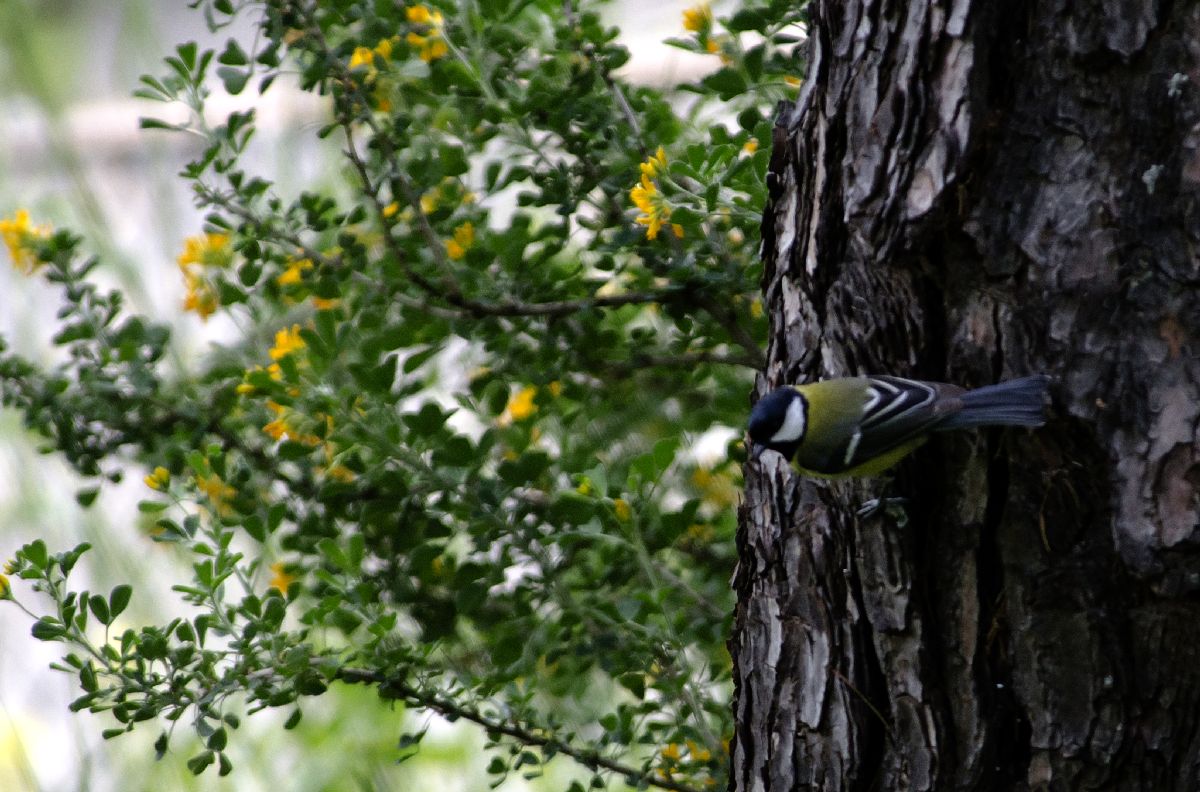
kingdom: Animalia
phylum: Chordata
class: Aves
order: Passeriformes
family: Paridae
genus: Parus
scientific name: Parus major
